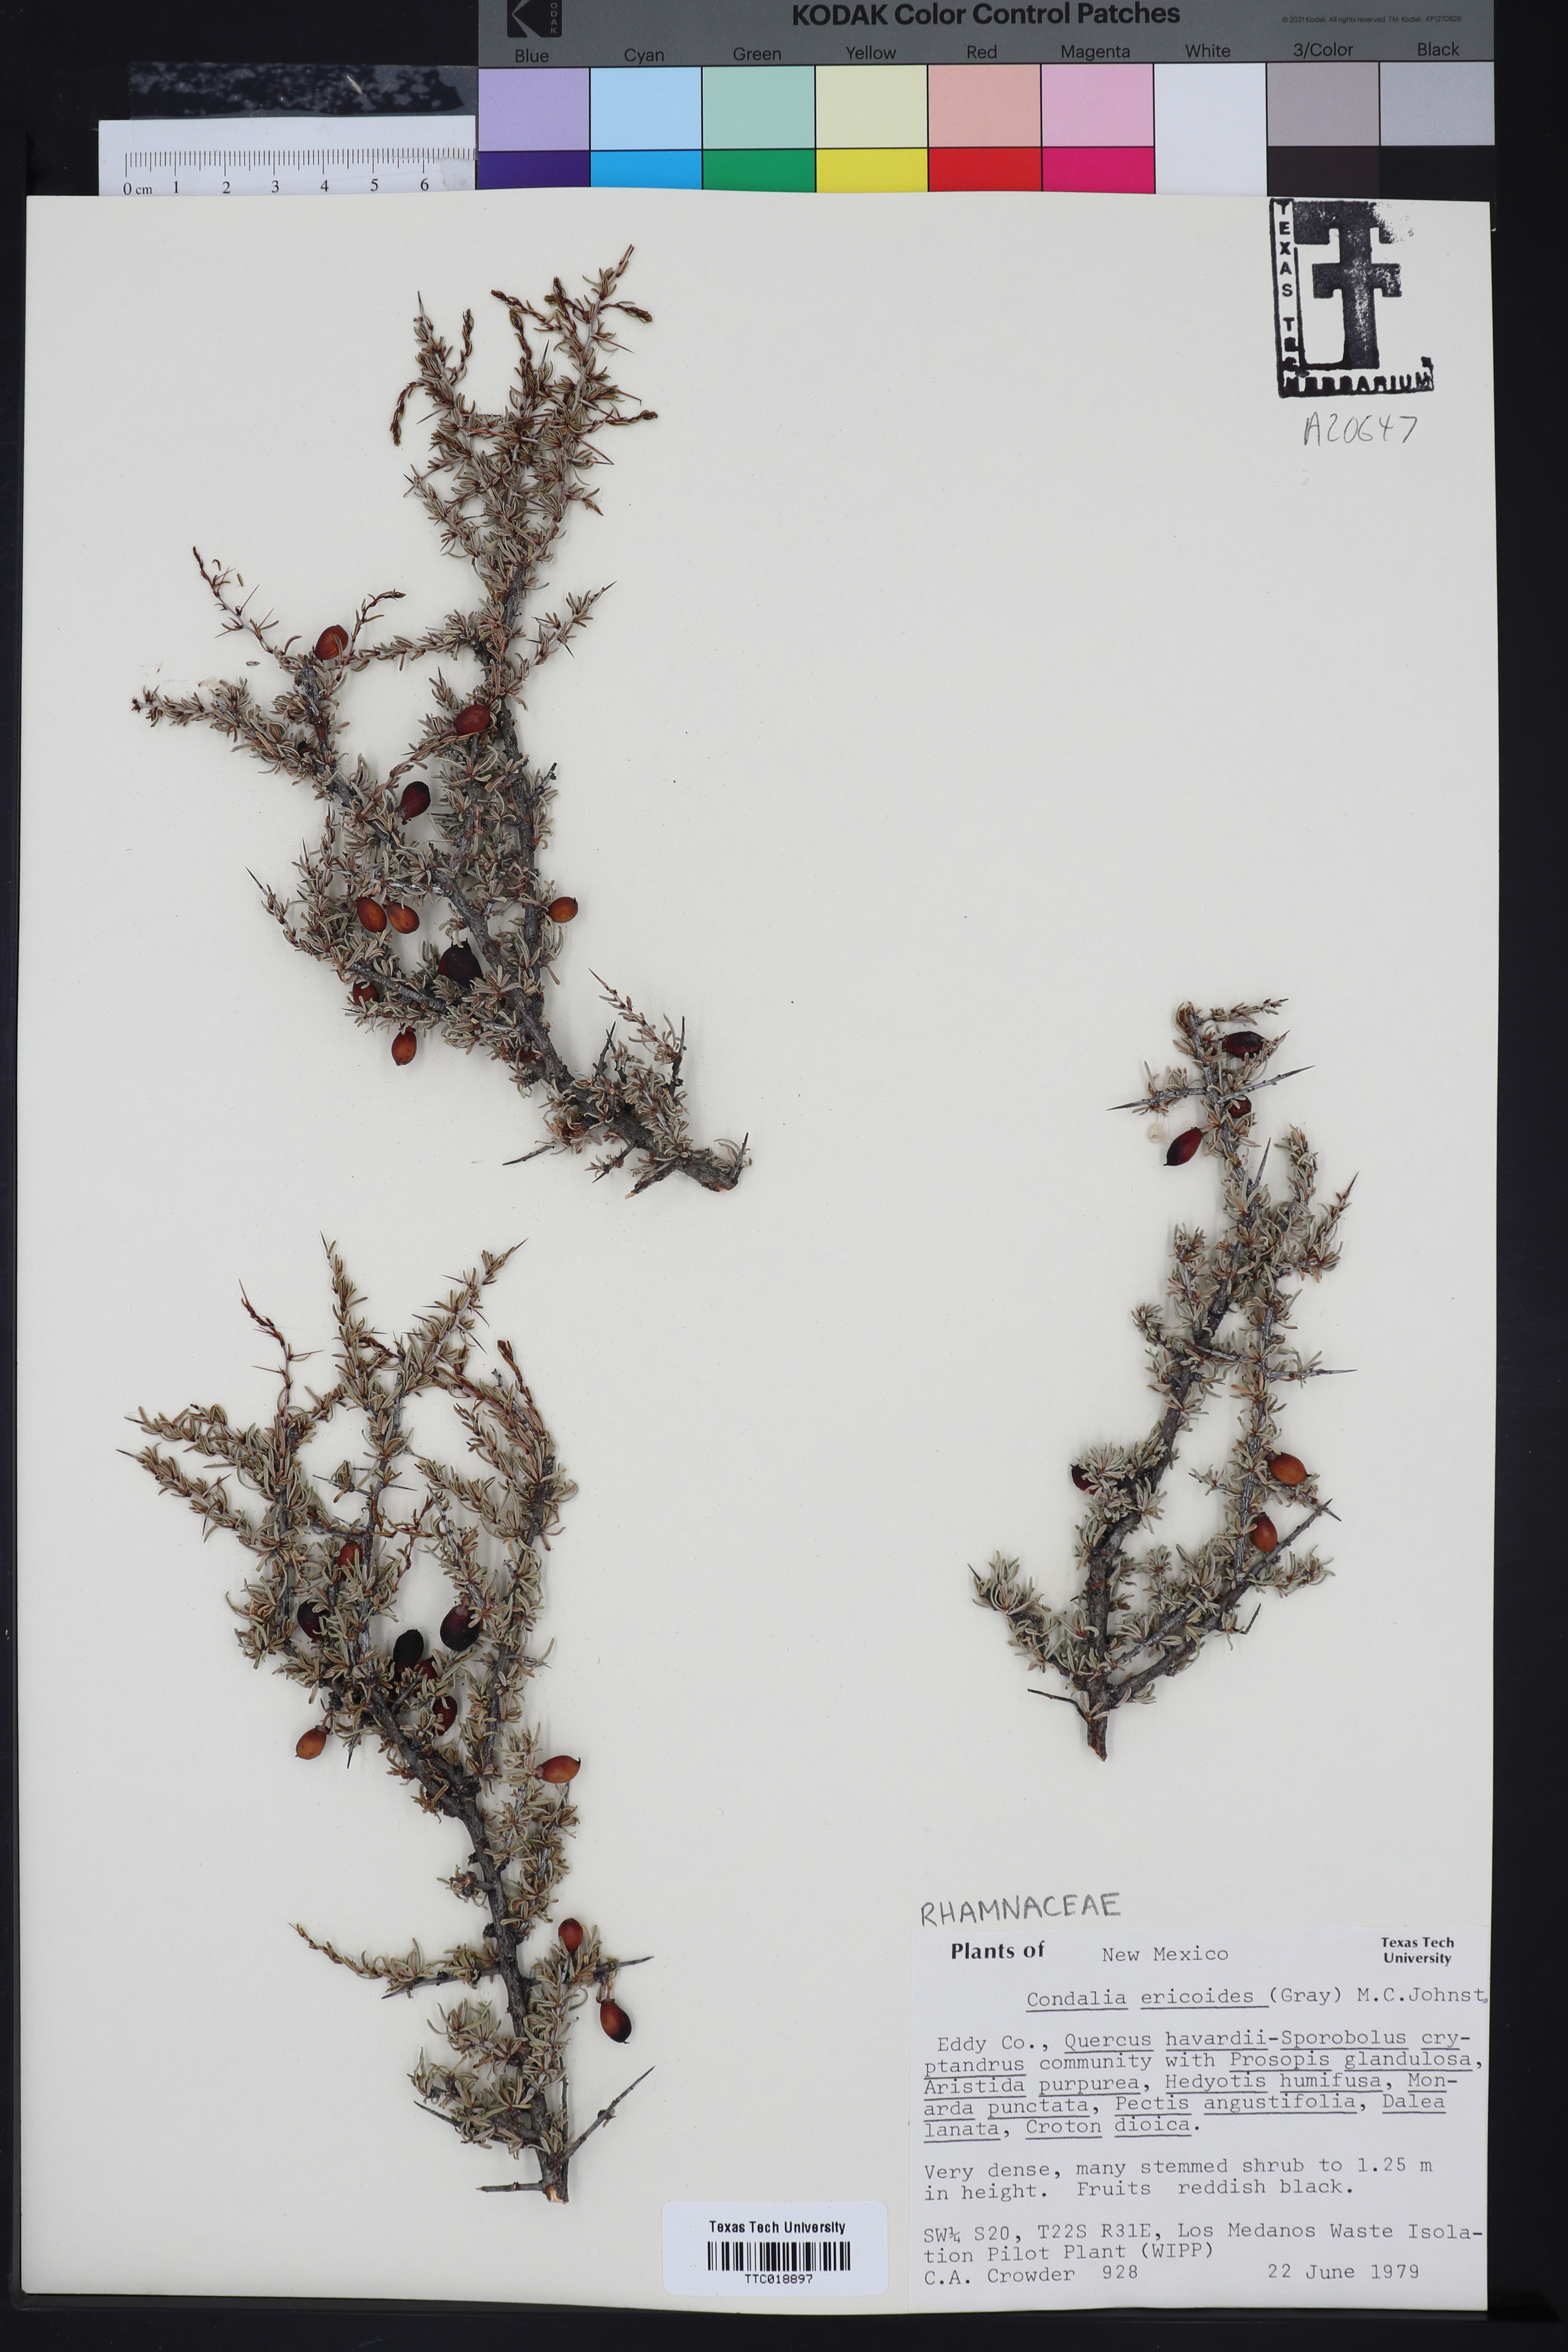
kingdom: Plantae
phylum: Tracheophyta
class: Magnoliopsida
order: Rosales
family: Rhamnaceae
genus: Condalia
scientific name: Condalia ericoides
